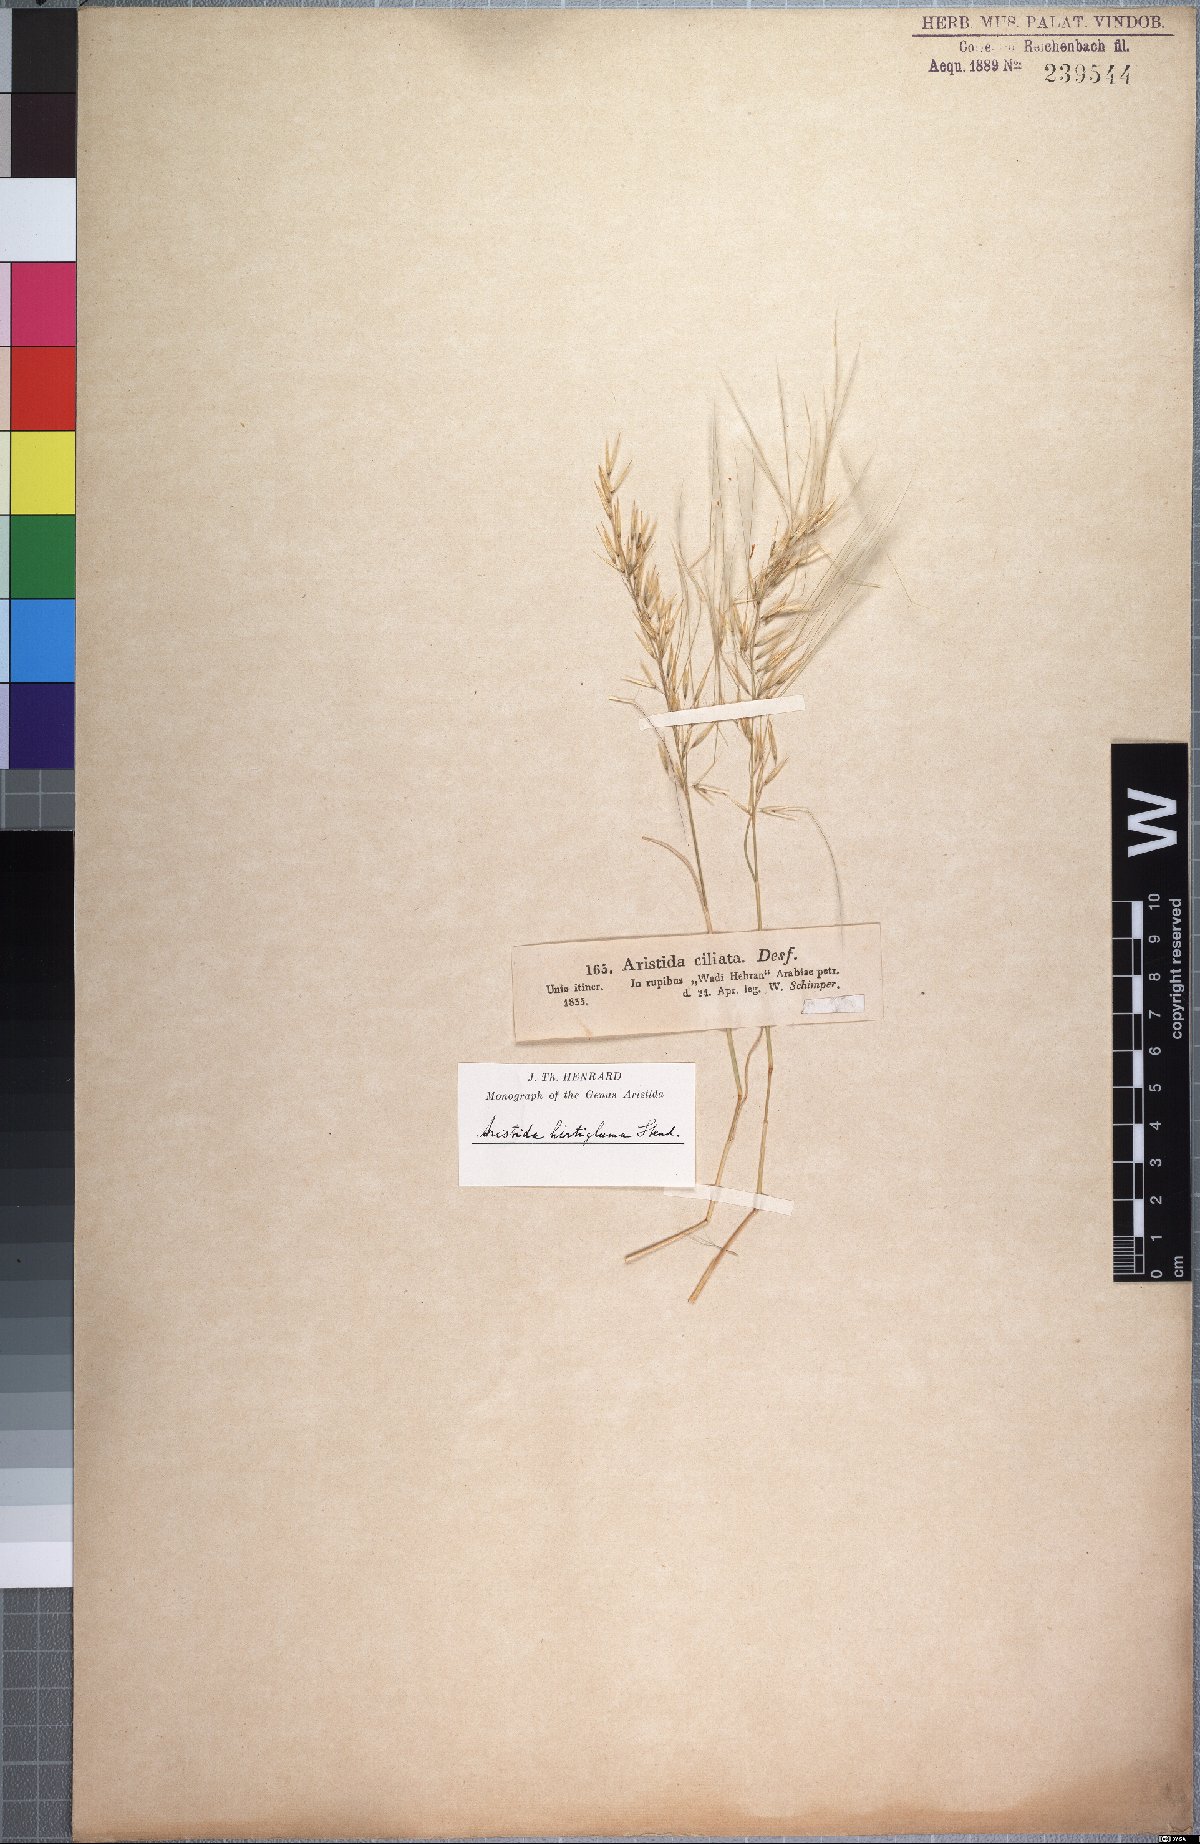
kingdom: Plantae
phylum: Tracheophyta
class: Liliopsida
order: Poales
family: Poaceae
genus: Stipagrostis
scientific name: Stipagrostis hirtigluma
